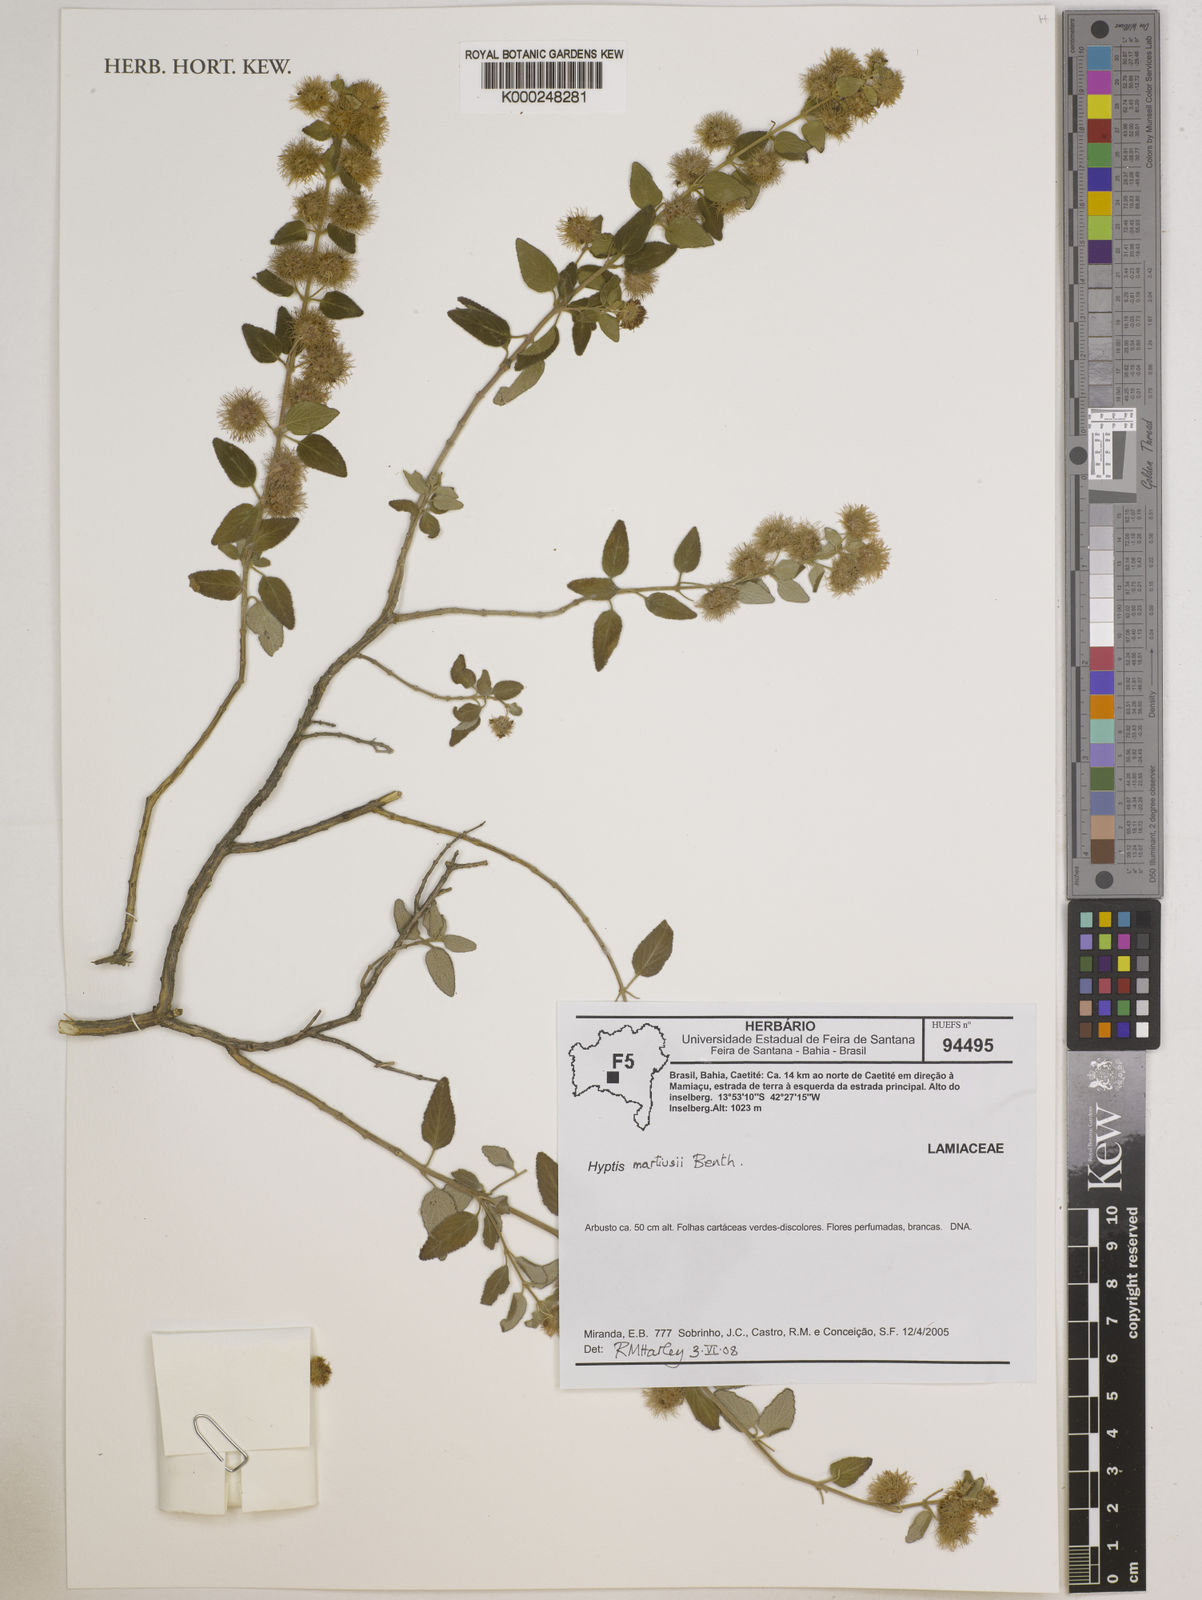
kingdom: Plantae
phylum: Tracheophyta
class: Magnoliopsida
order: Lamiales
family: Lamiaceae
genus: Medusantha
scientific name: Medusantha martiusii
